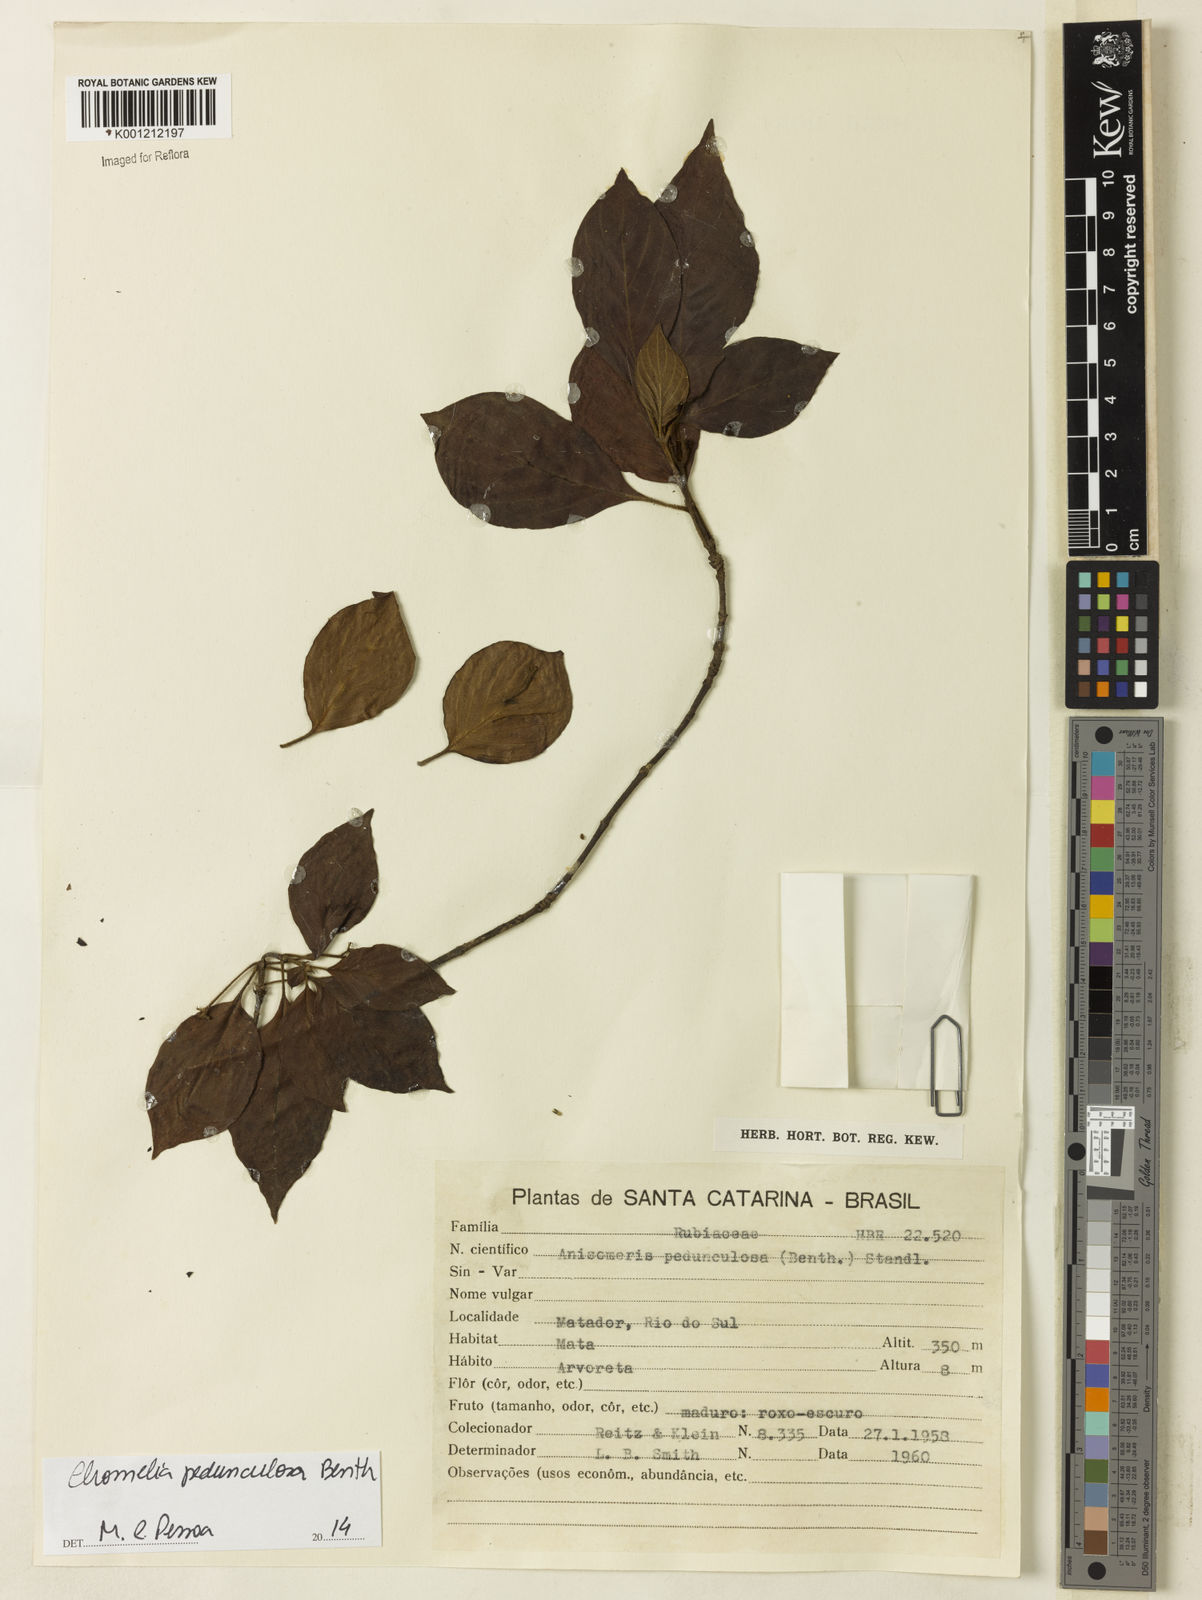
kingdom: Plantae
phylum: Tracheophyta
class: Magnoliopsida
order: Gentianales
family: Rubiaceae
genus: Chomelia
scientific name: Chomelia pedunculosa
